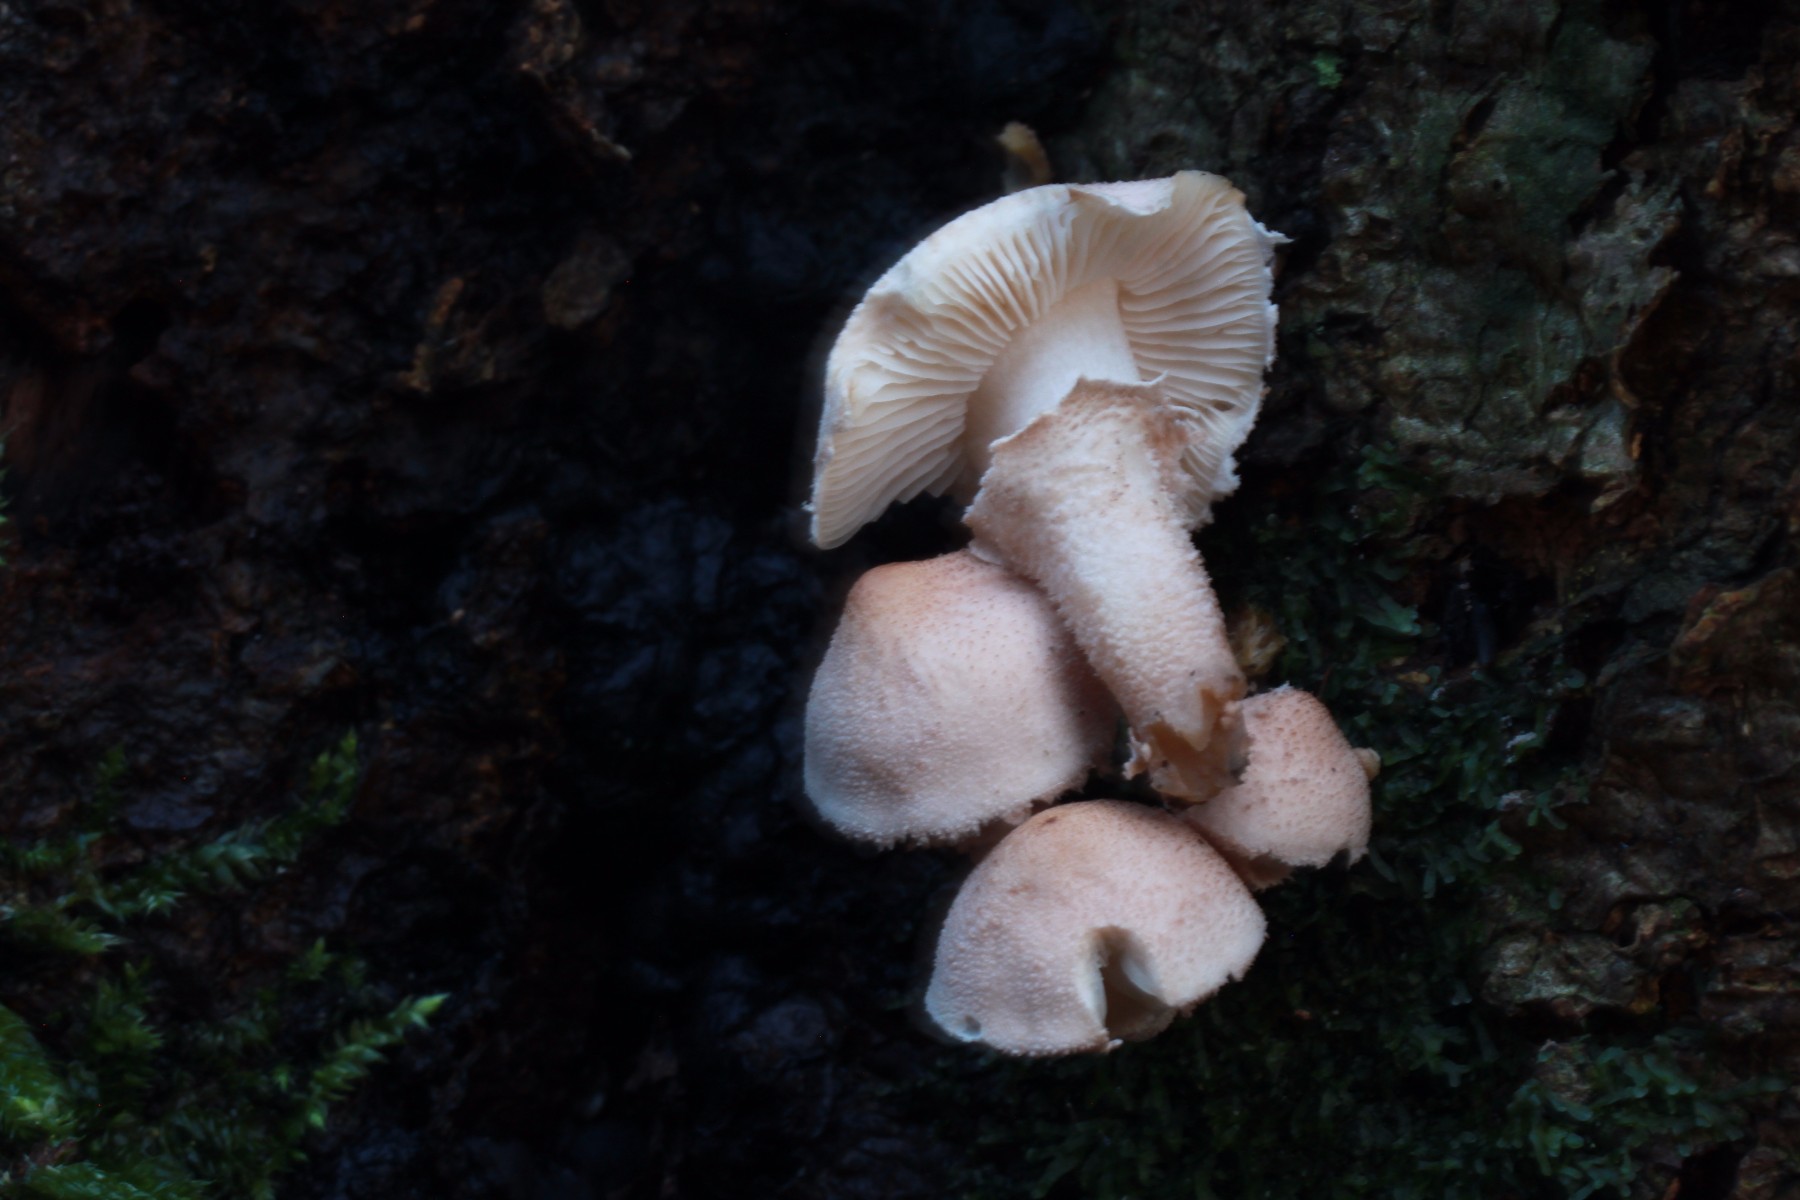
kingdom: Fungi
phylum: Basidiomycota
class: Agaricomycetes
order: Agaricales
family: Tricholomataceae
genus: Cystoderma
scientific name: Cystoderma carcharias
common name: rødgrå grynhat
